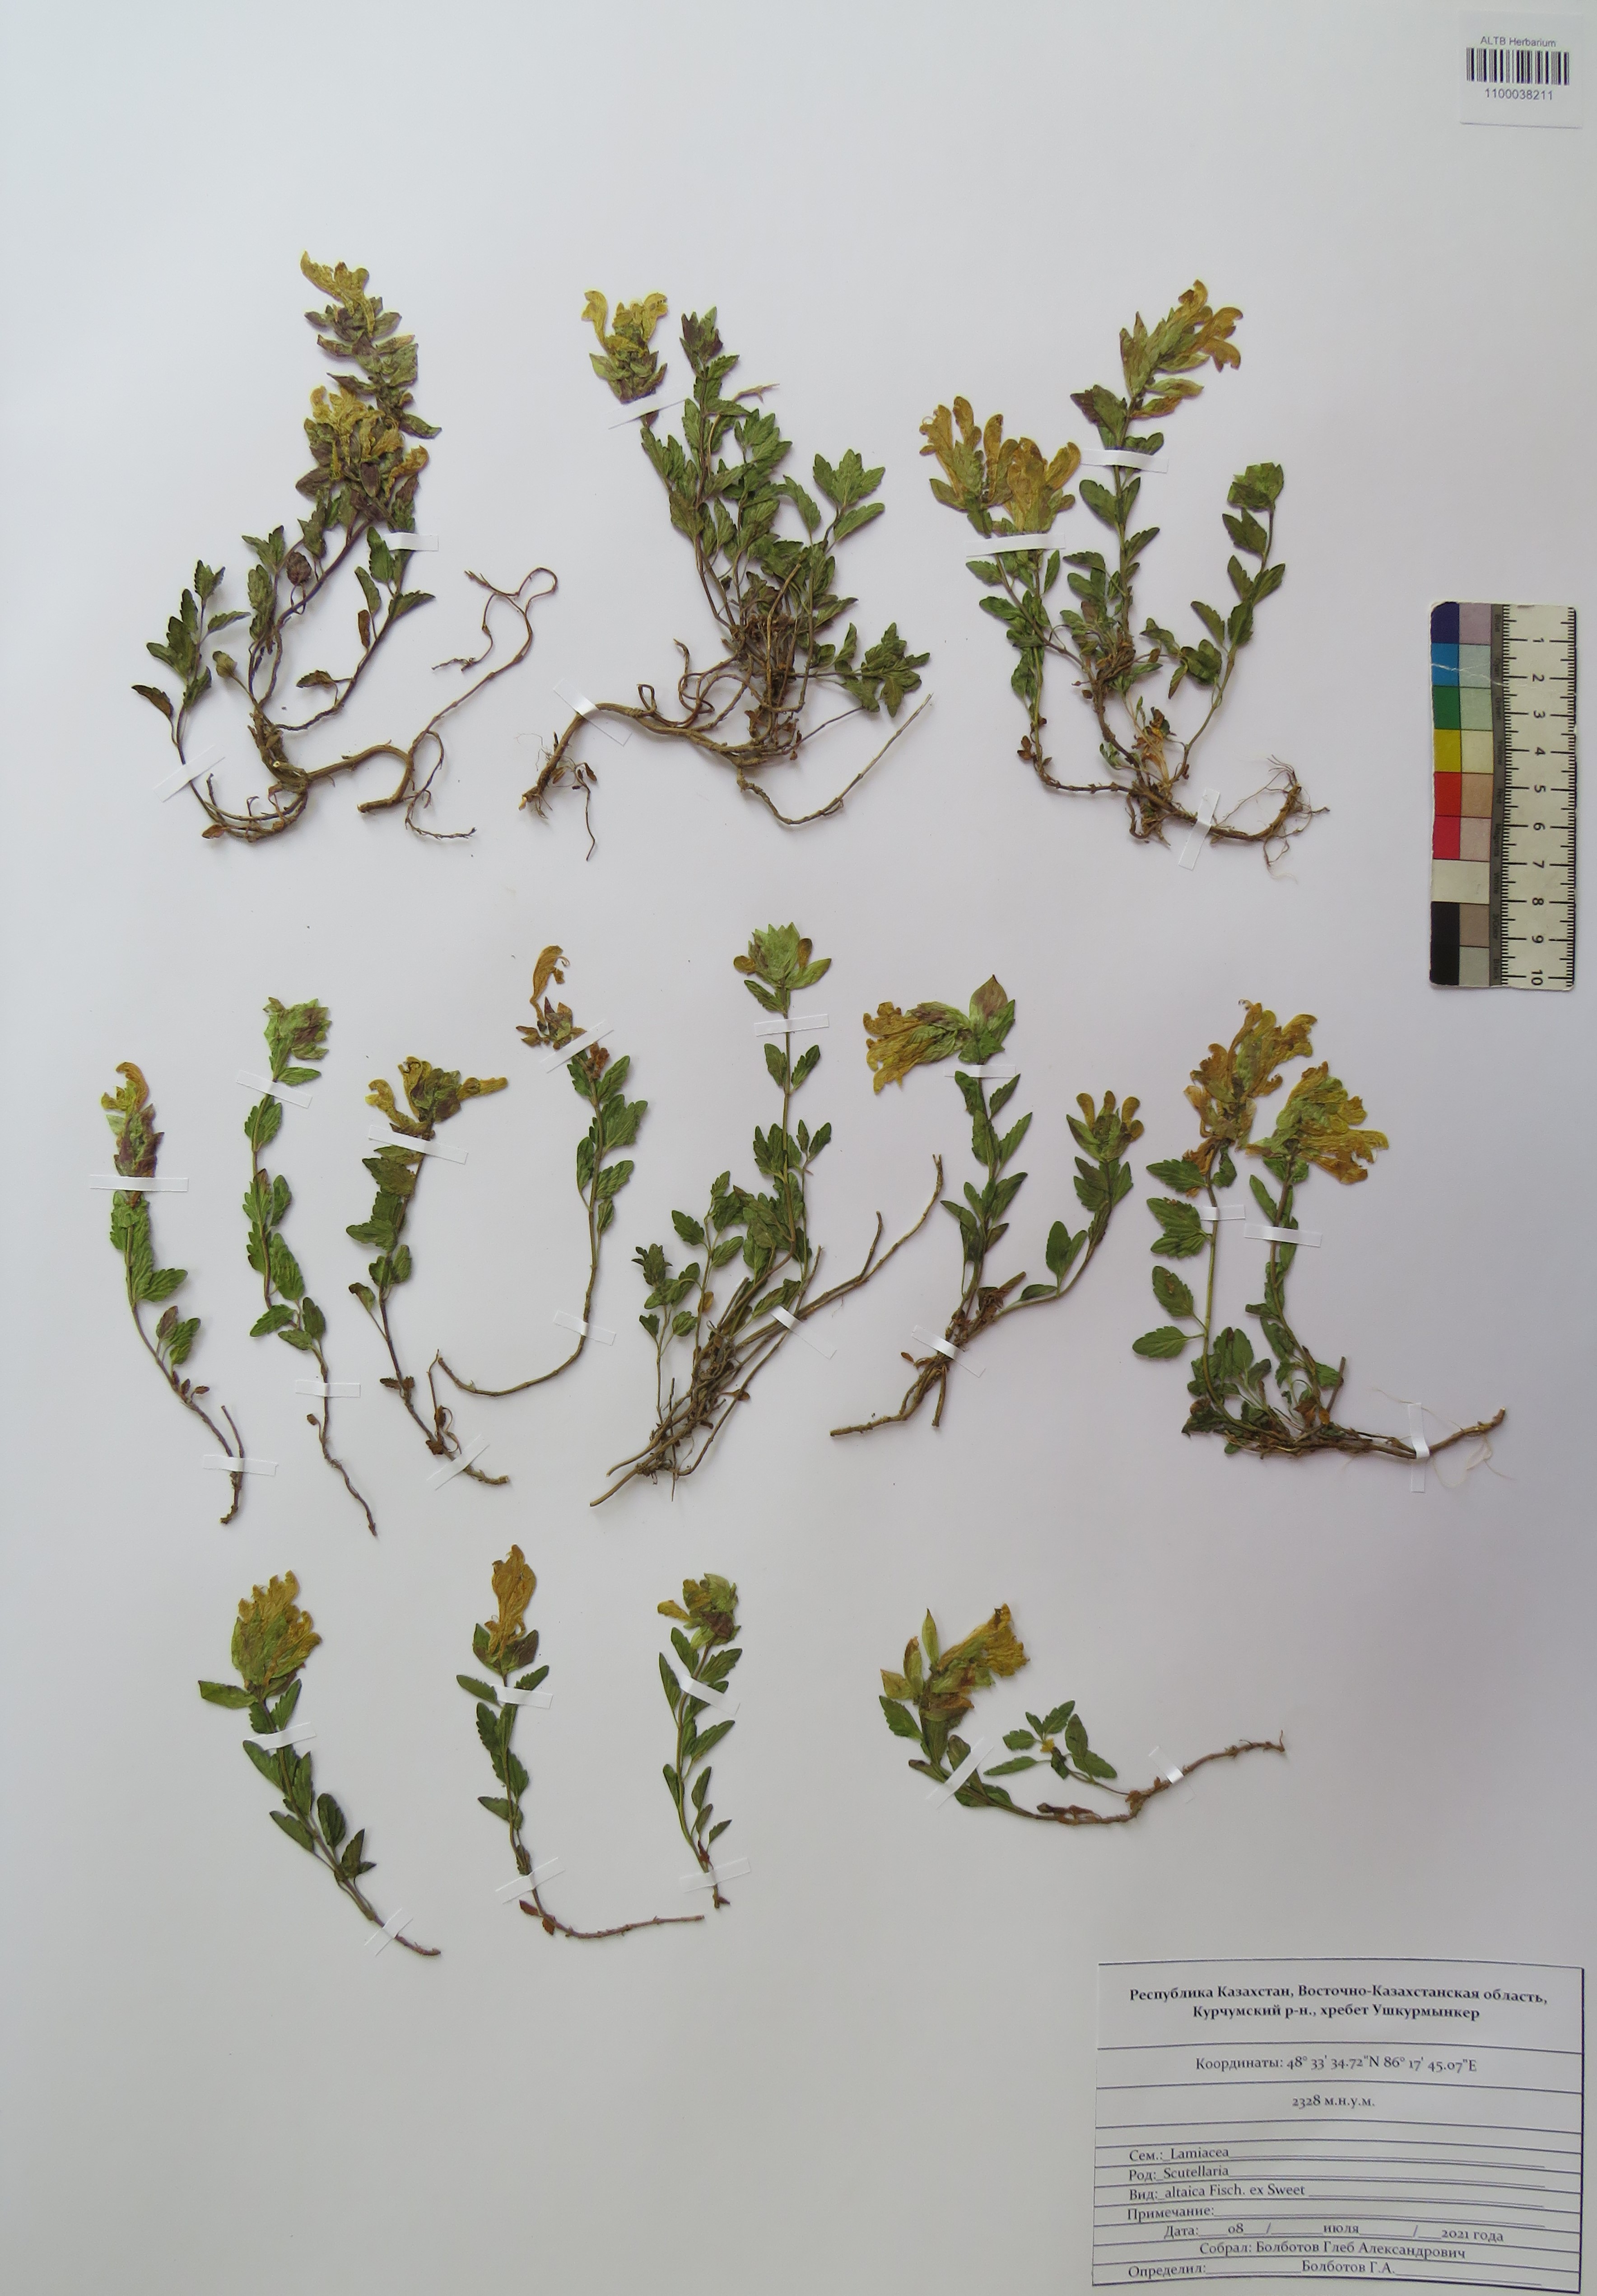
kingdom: Plantae
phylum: Tracheophyta
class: Magnoliopsida
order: Lamiales
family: Lamiaceae
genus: Scutellaria
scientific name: Scutellaria altaica
